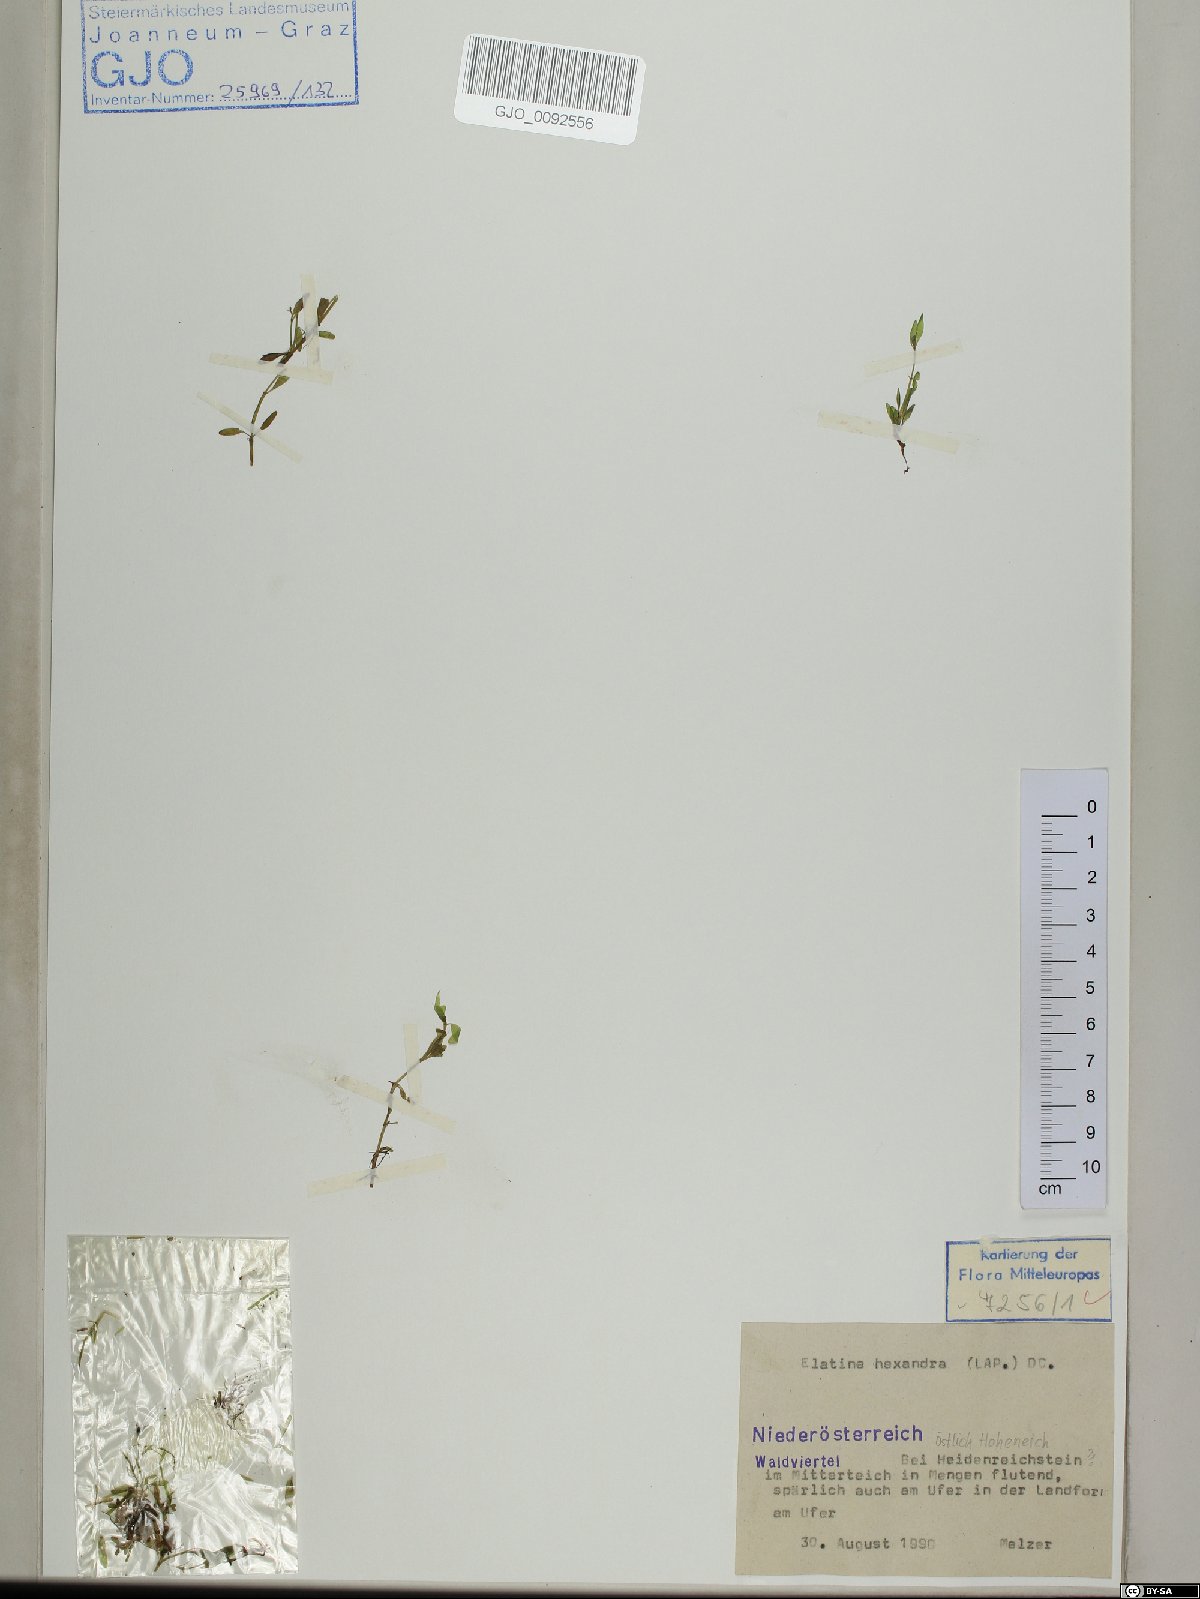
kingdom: Plantae
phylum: Tracheophyta
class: Magnoliopsida
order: Malpighiales
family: Elatinaceae
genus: Elatine
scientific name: Elatine hexandra
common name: Six-stamened waterwort
